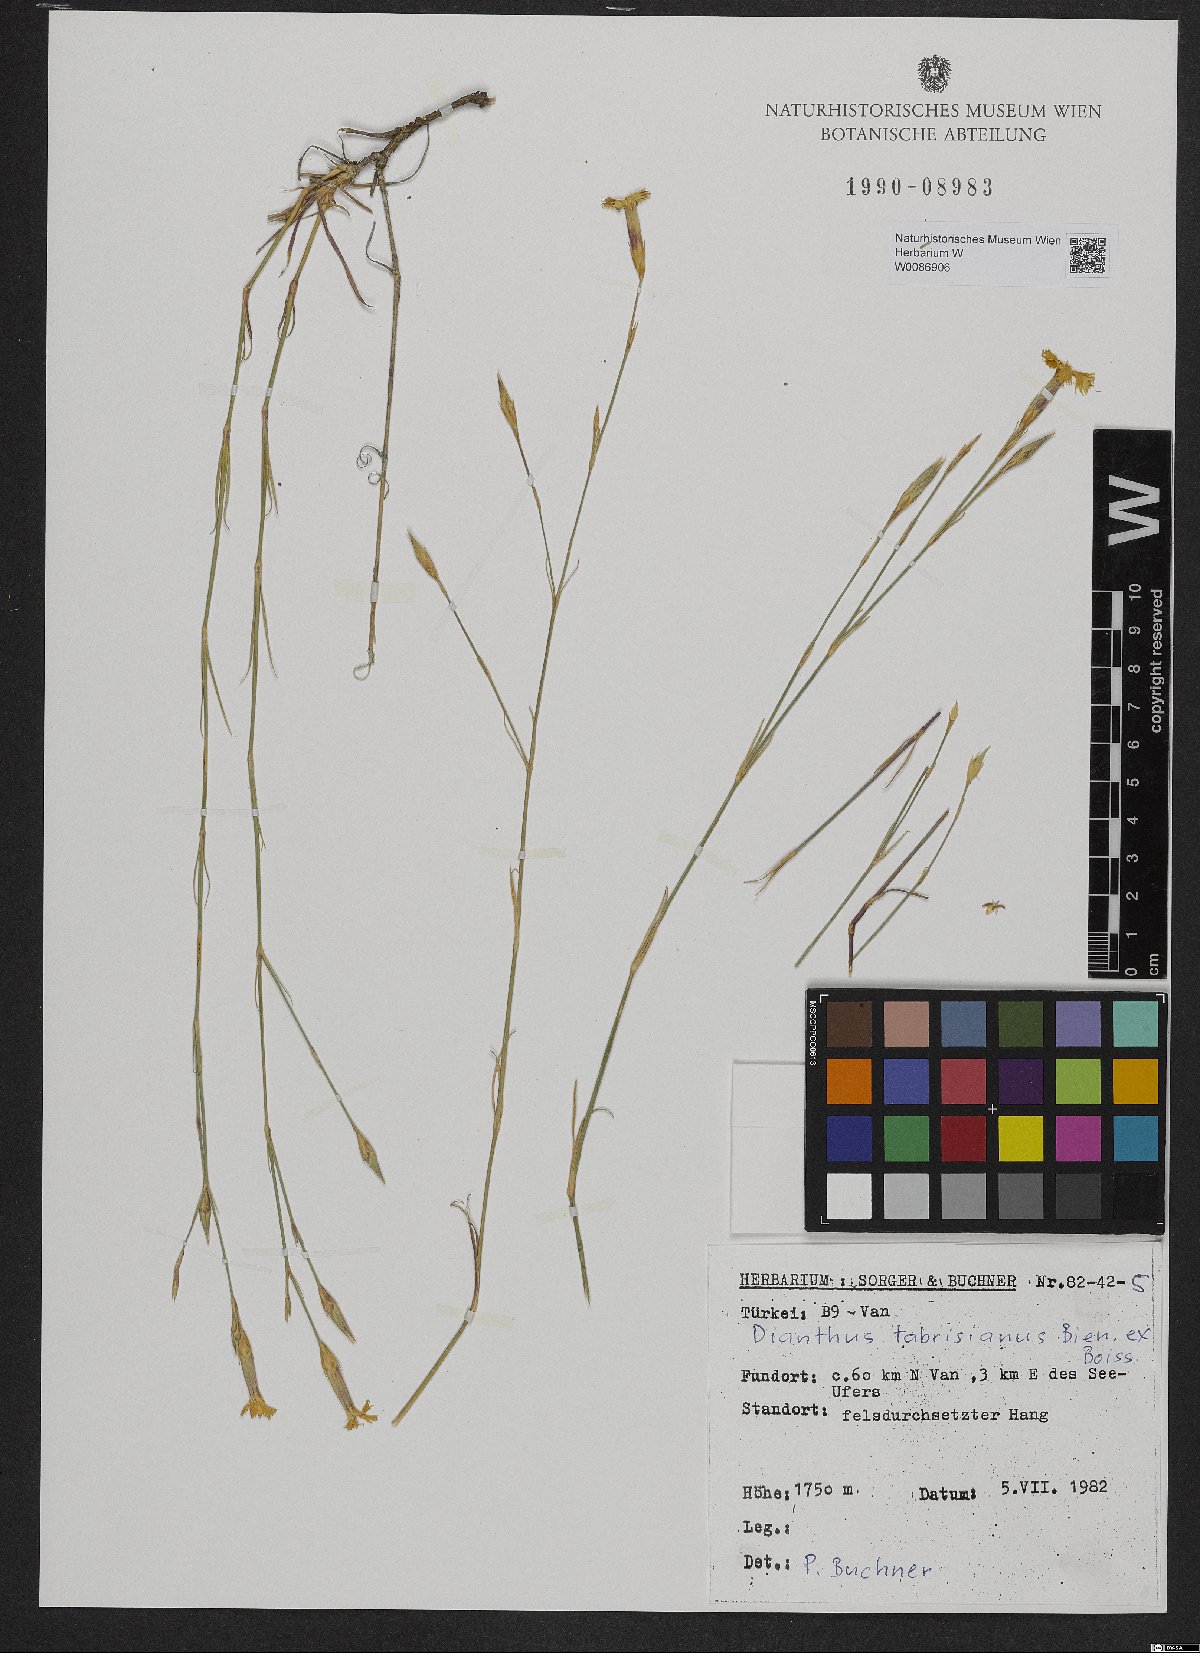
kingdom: Plantae
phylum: Tracheophyta
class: Magnoliopsida
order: Caryophyllales
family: Caryophyllaceae
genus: Dianthus
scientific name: Dianthus tabrisianus
